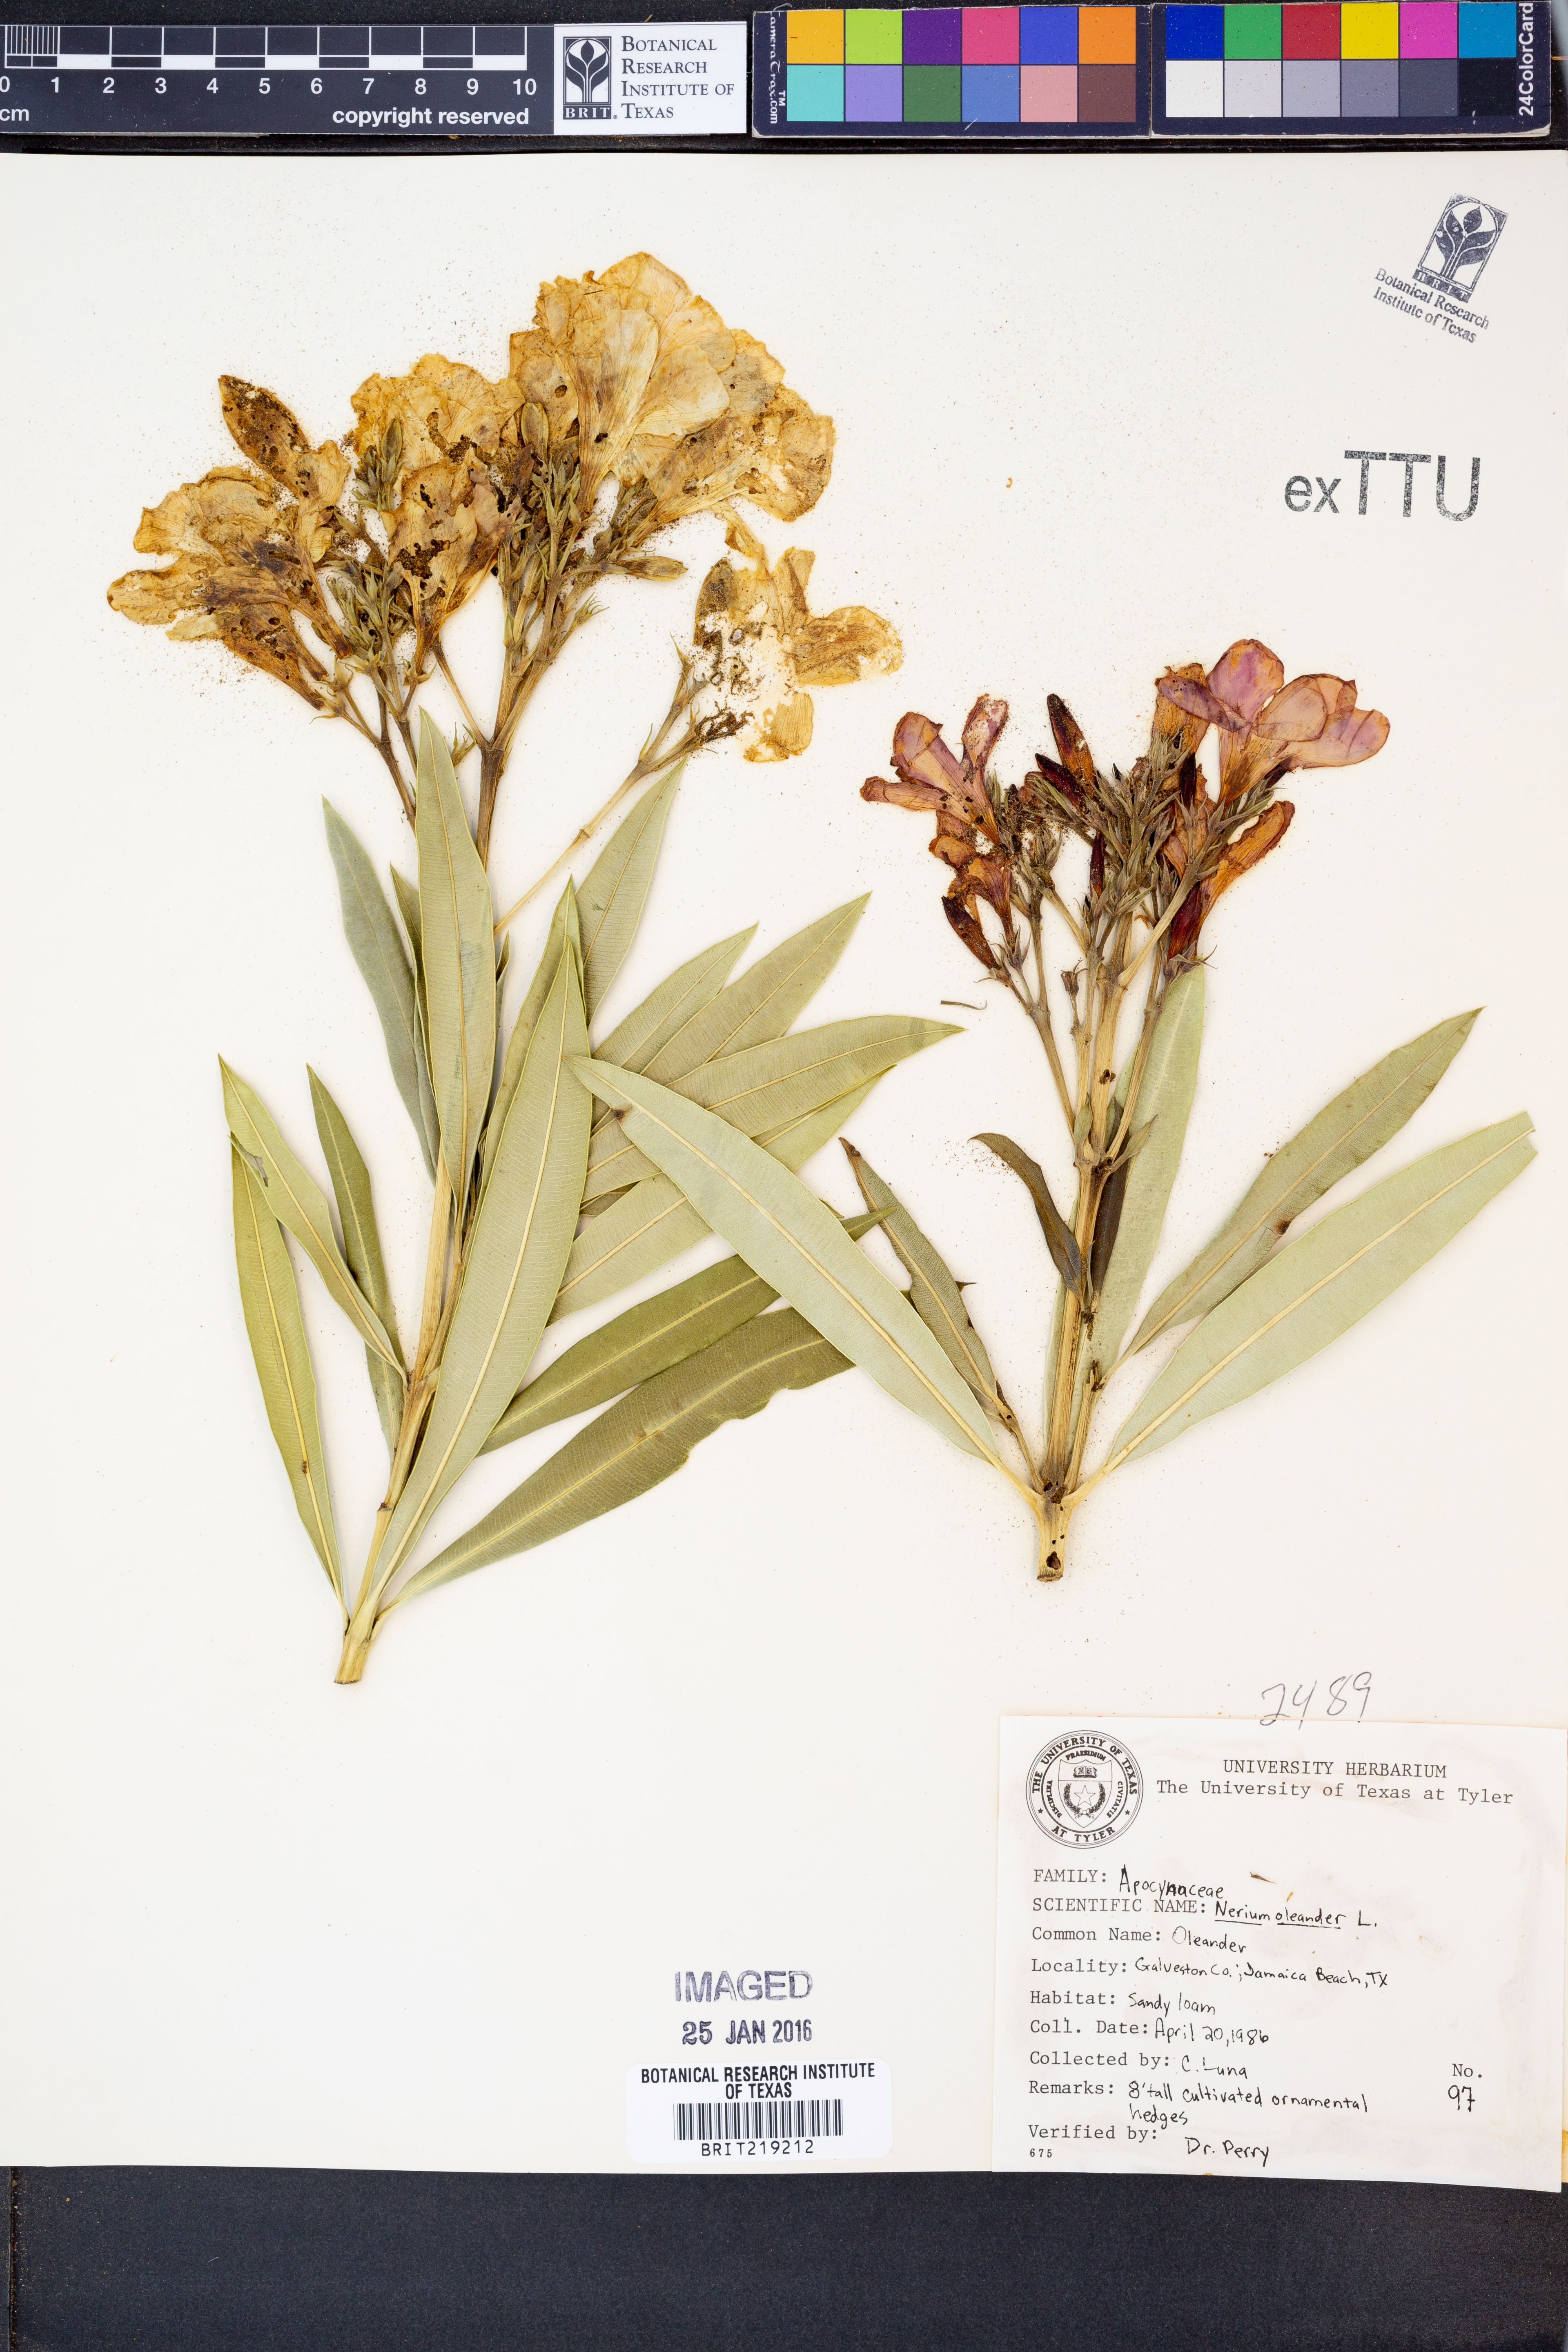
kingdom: Plantae
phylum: Tracheophyta
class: Magnoliopsida
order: Gentianales
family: Apocynaceae
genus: Nerium
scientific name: Nerium oleander
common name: Oleander
